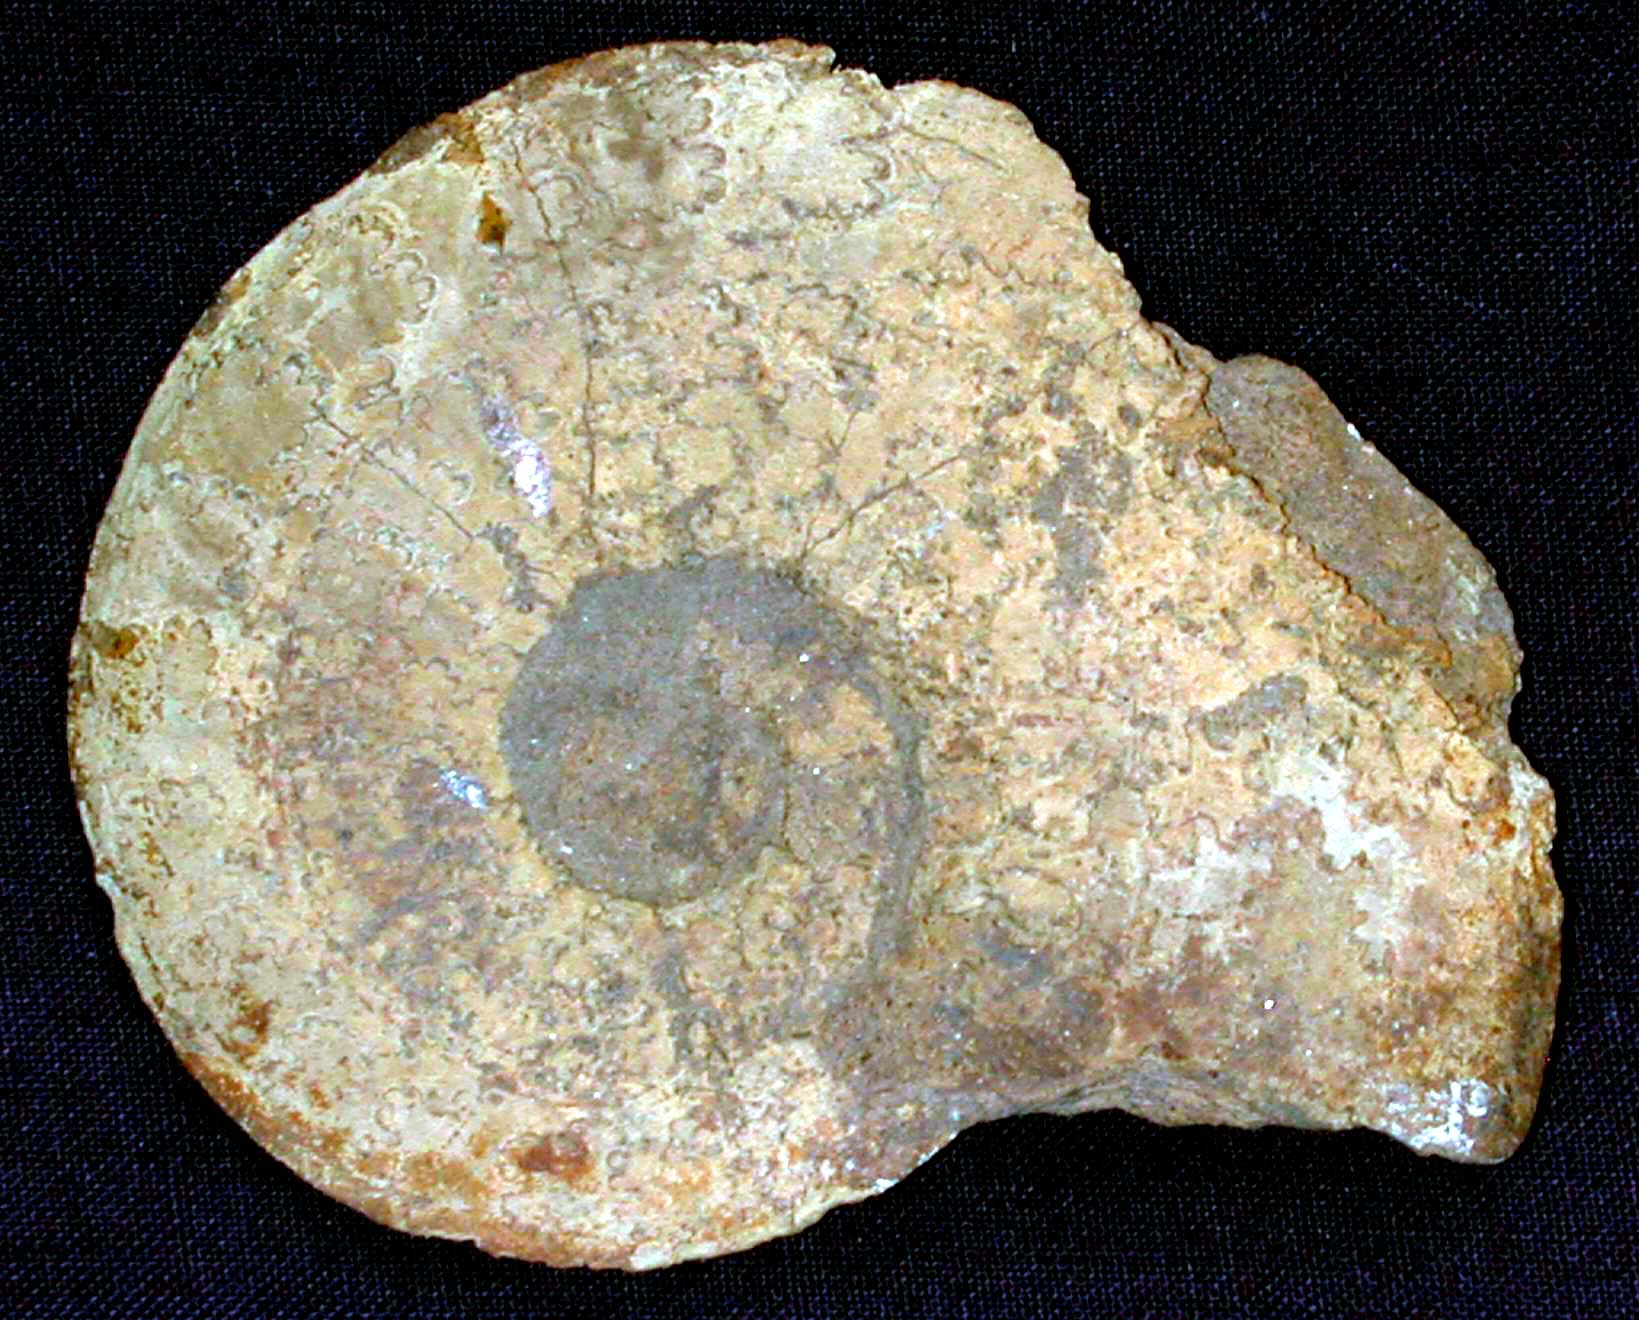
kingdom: Animalia
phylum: Mollusca
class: Cephalopoda
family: Hildoceratidae
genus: Pleydellia
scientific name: Pleydellia
